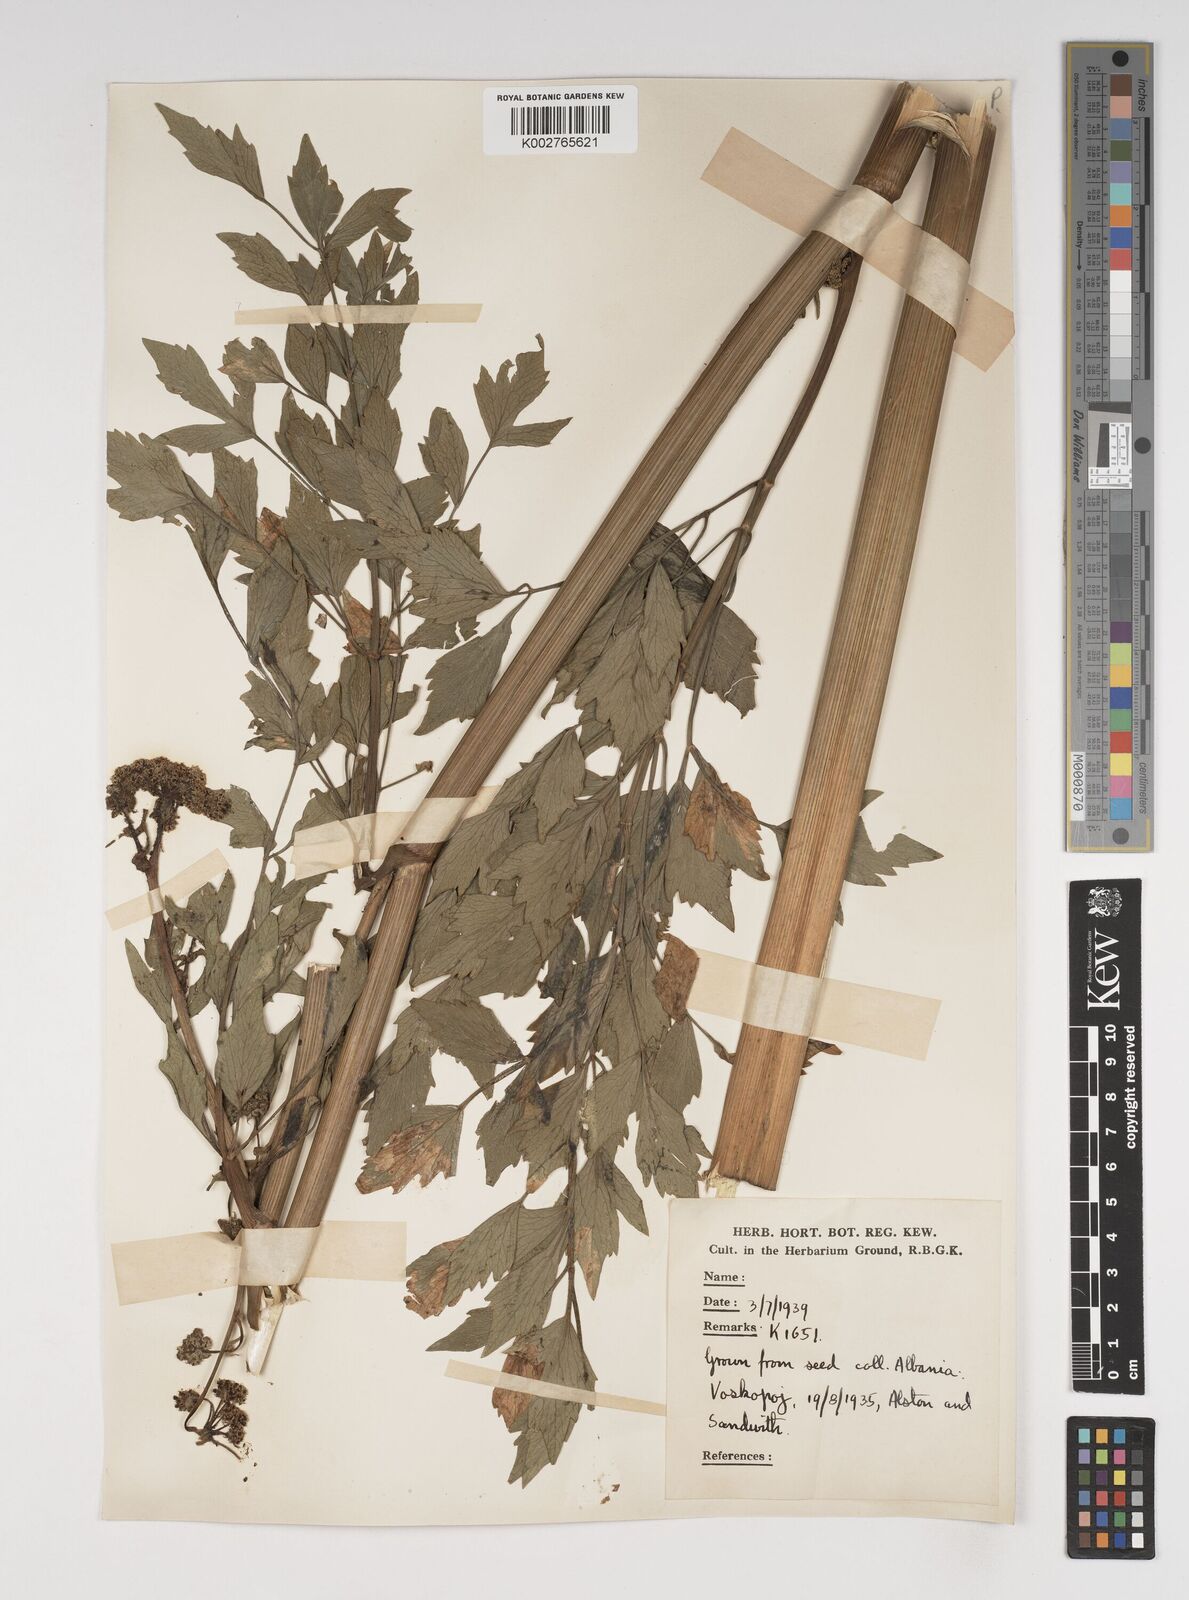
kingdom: Plantae
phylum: Tracheophyta
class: Magnoliopsida
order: Apiales
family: Apiaceae
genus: Levisticum
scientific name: Levisticum officinale
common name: Lovage
